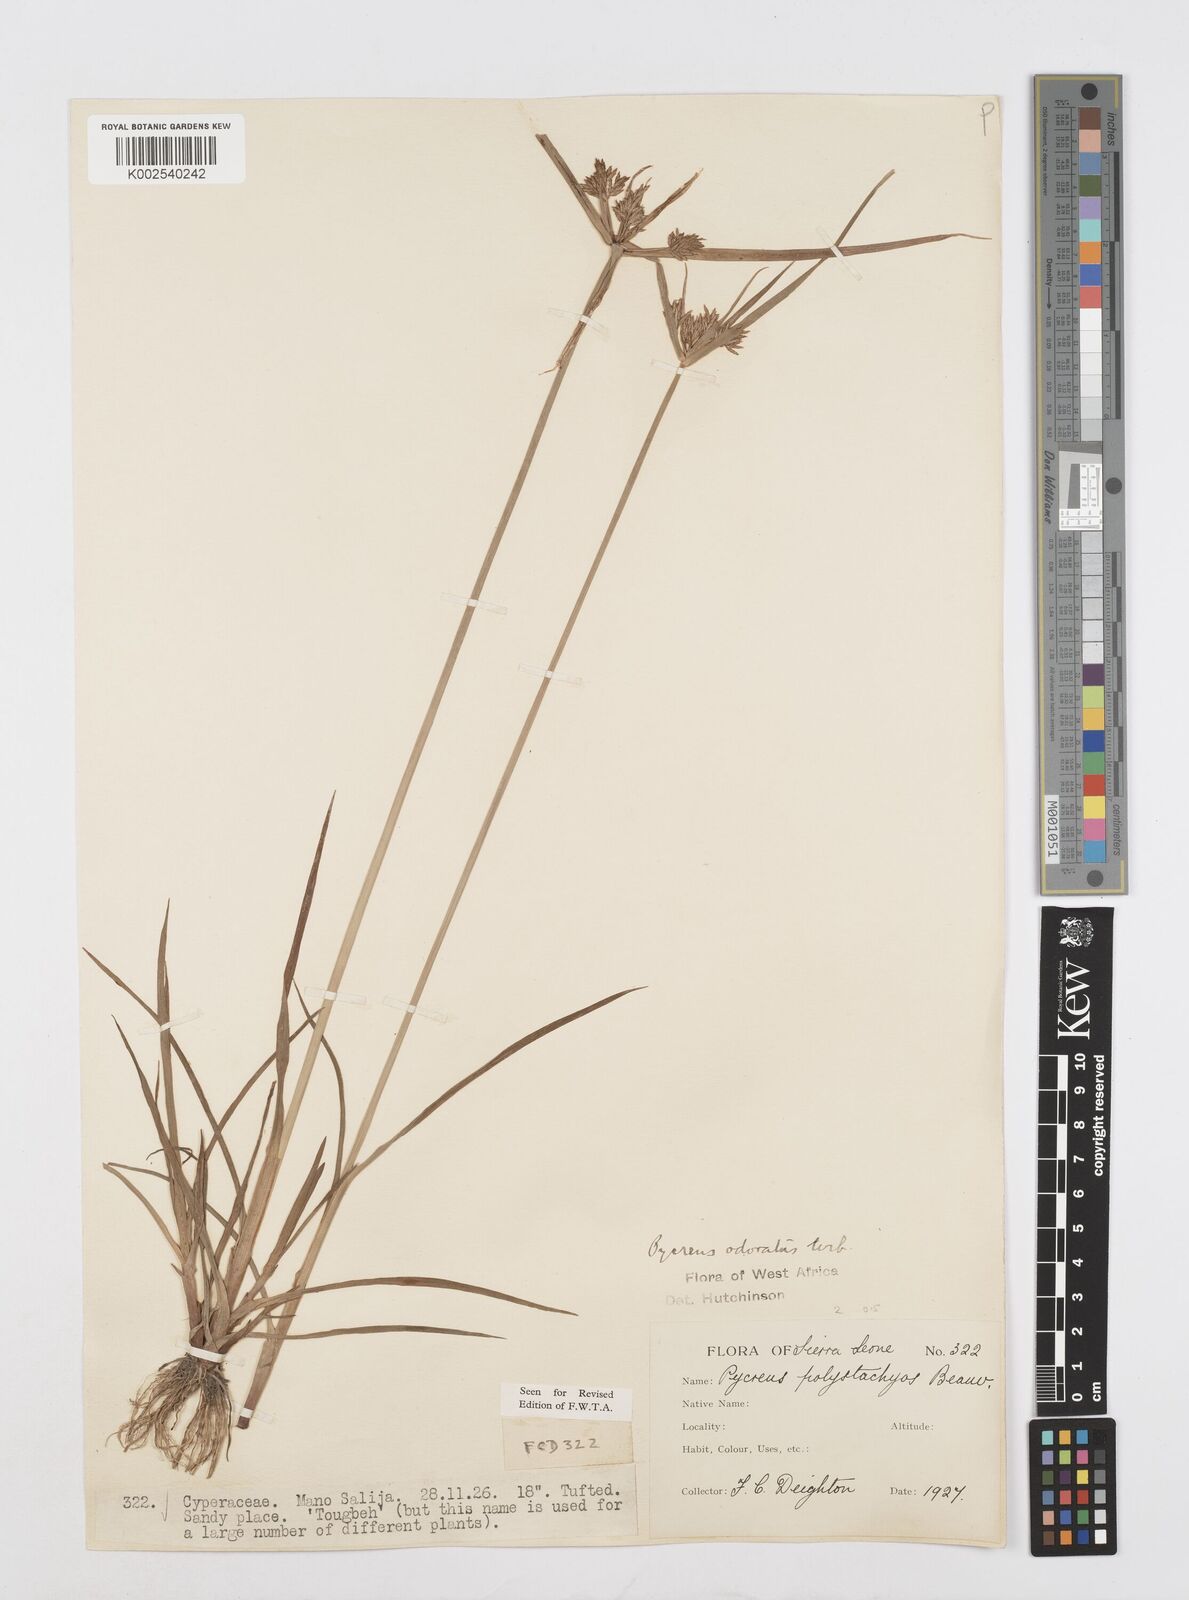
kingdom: Plantae
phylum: Tracheophyta
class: Liliopsida
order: Poales
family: Cyperaceae
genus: Cyperus
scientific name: Cyperus polystachyos
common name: Bunchy flat sedge
